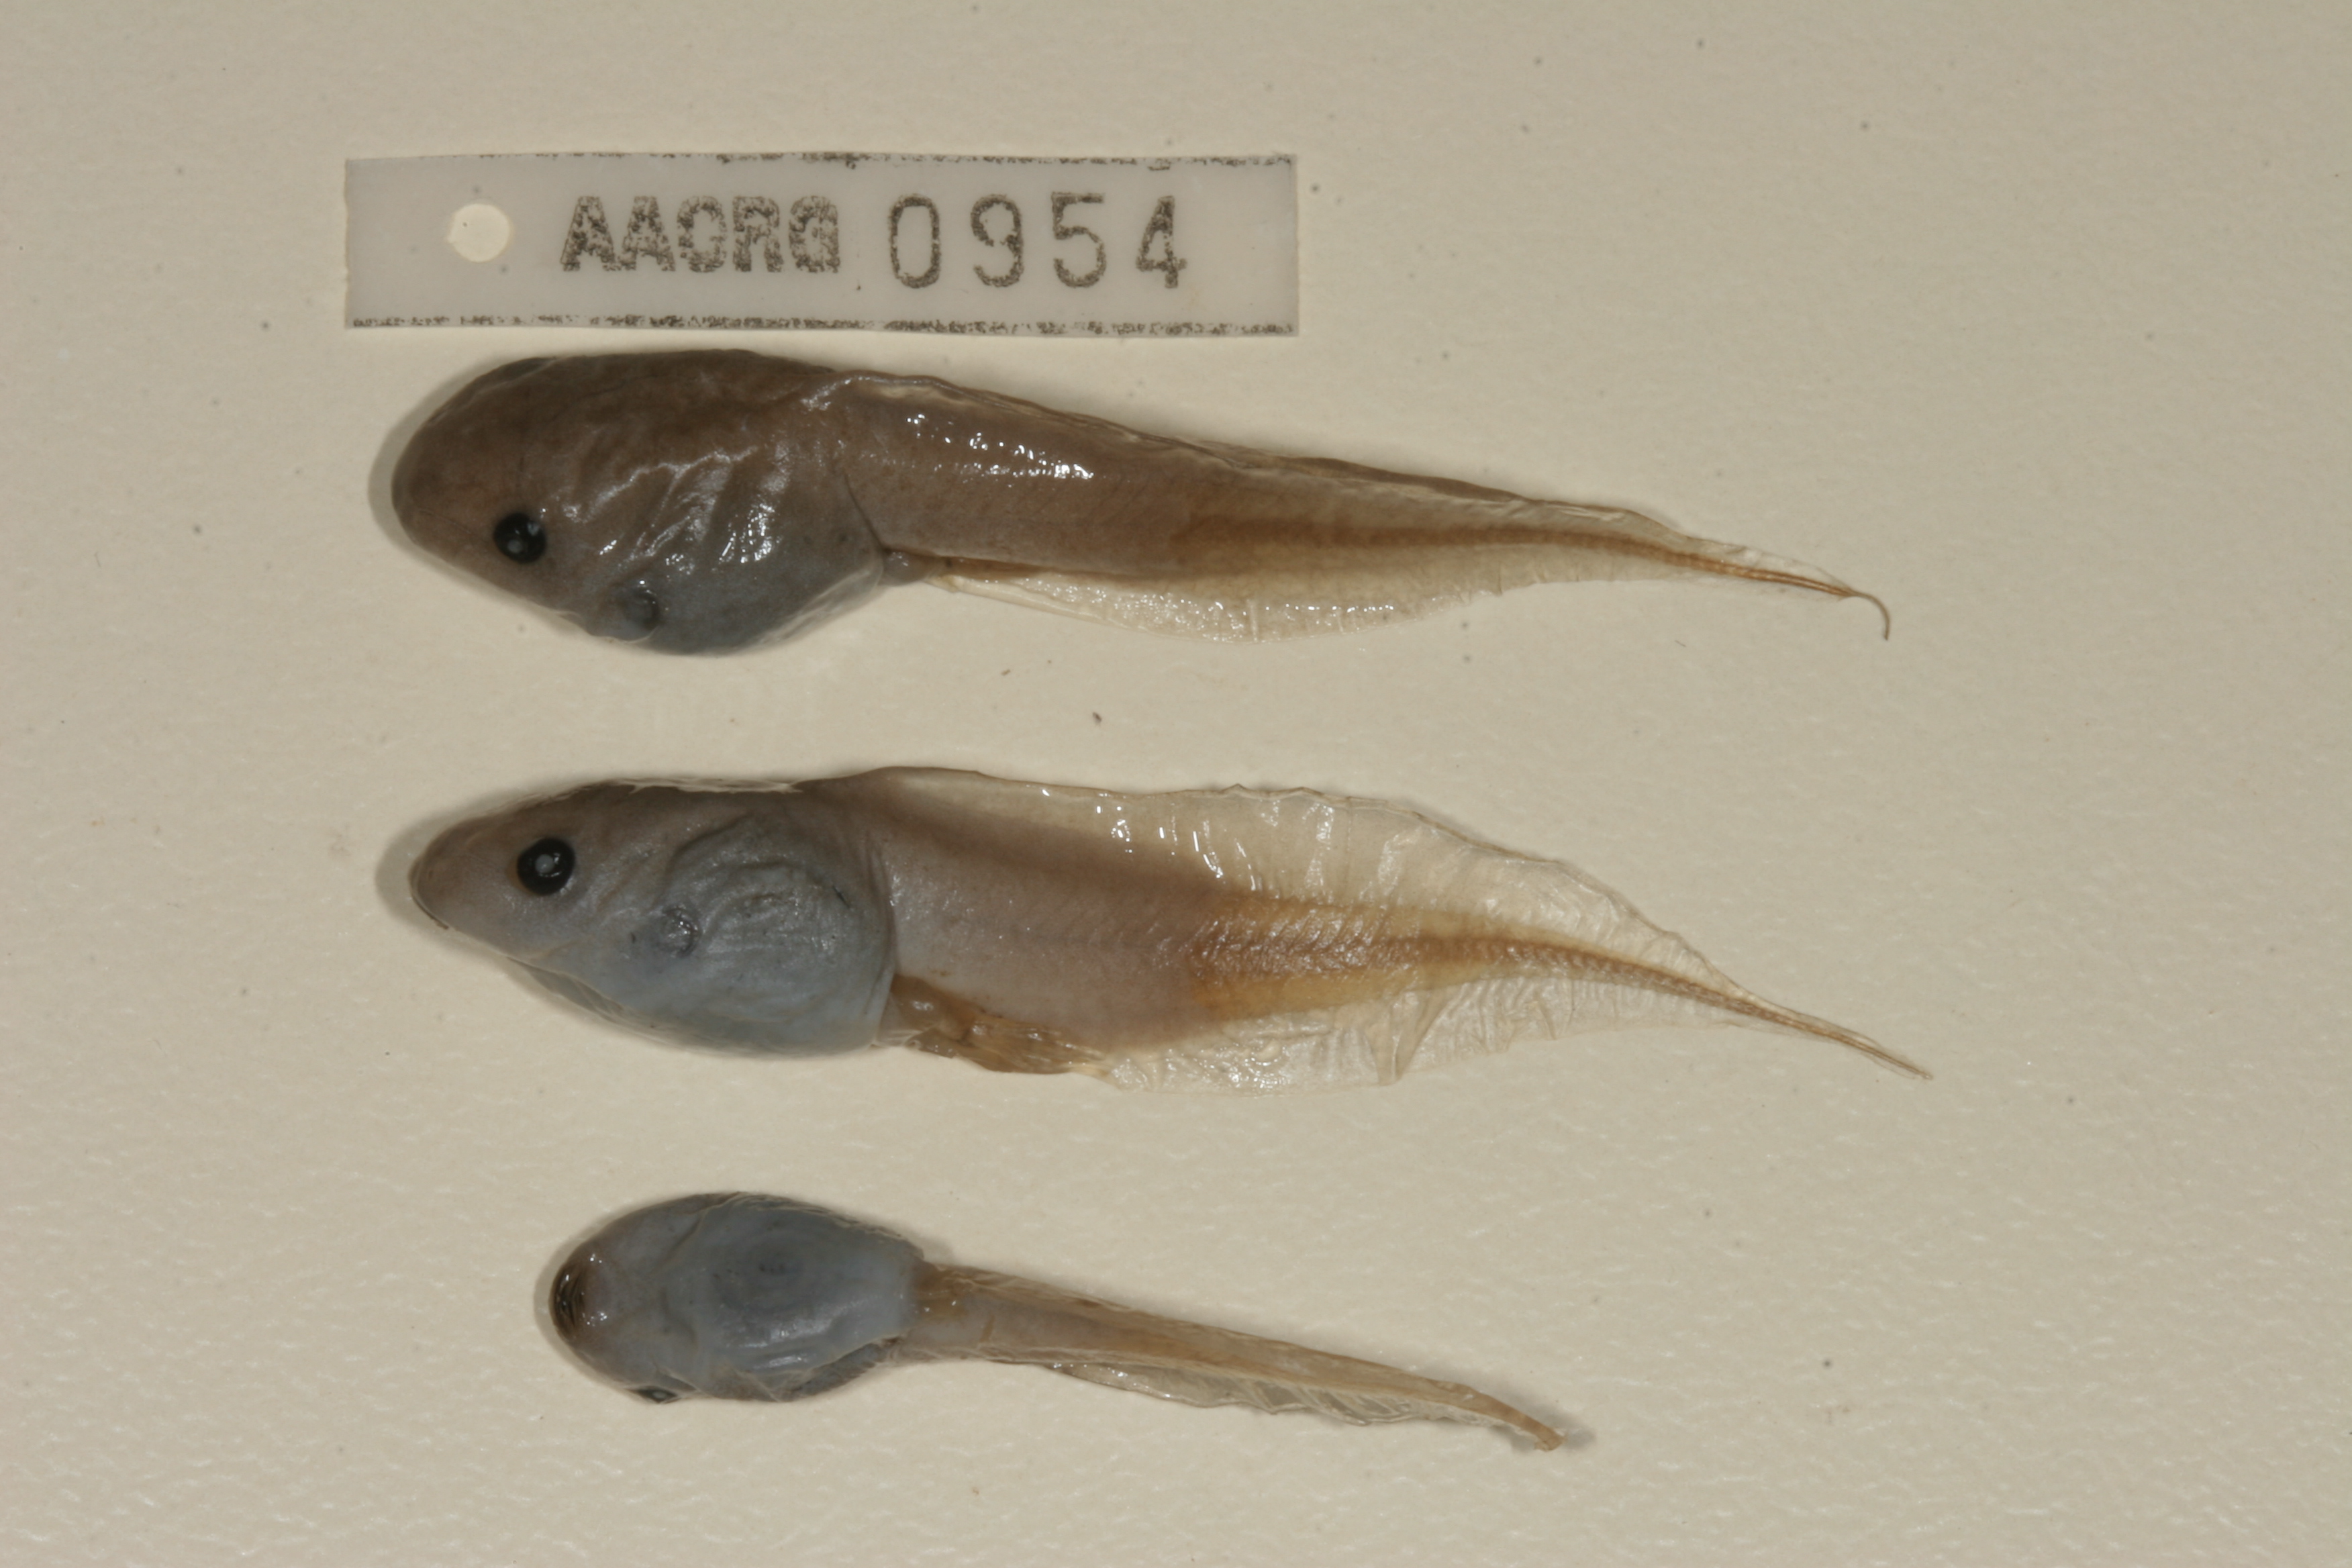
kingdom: Animalia
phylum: Chordata
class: Amphibia
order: Anura
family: Hemisotidae
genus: Hemisus
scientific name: Hemisus marmoratus
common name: Mottled shovel-nosed frog
